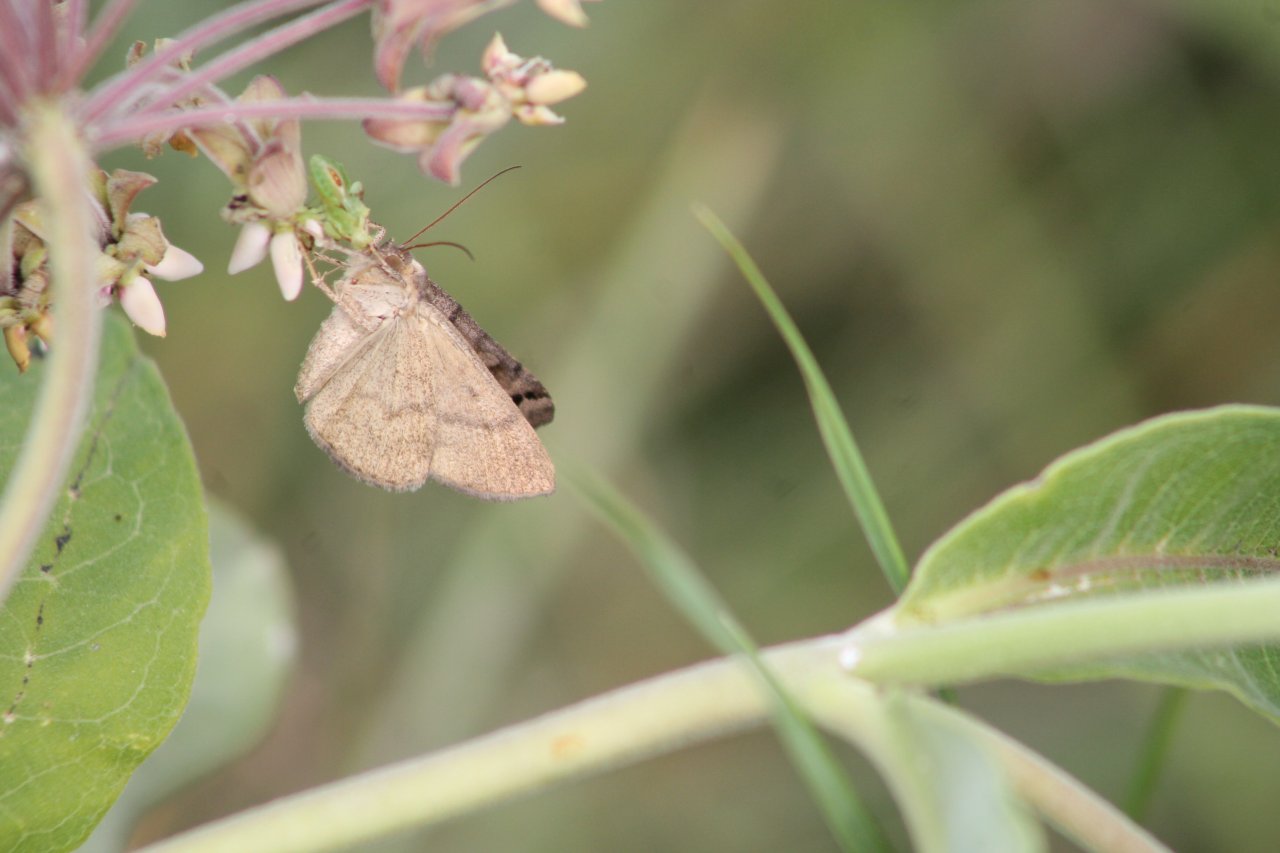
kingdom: Animalia
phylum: Arthropoda
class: Insecta
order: Lepidoptera
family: Lycaenidae
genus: Satyrium
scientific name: Satyrium
